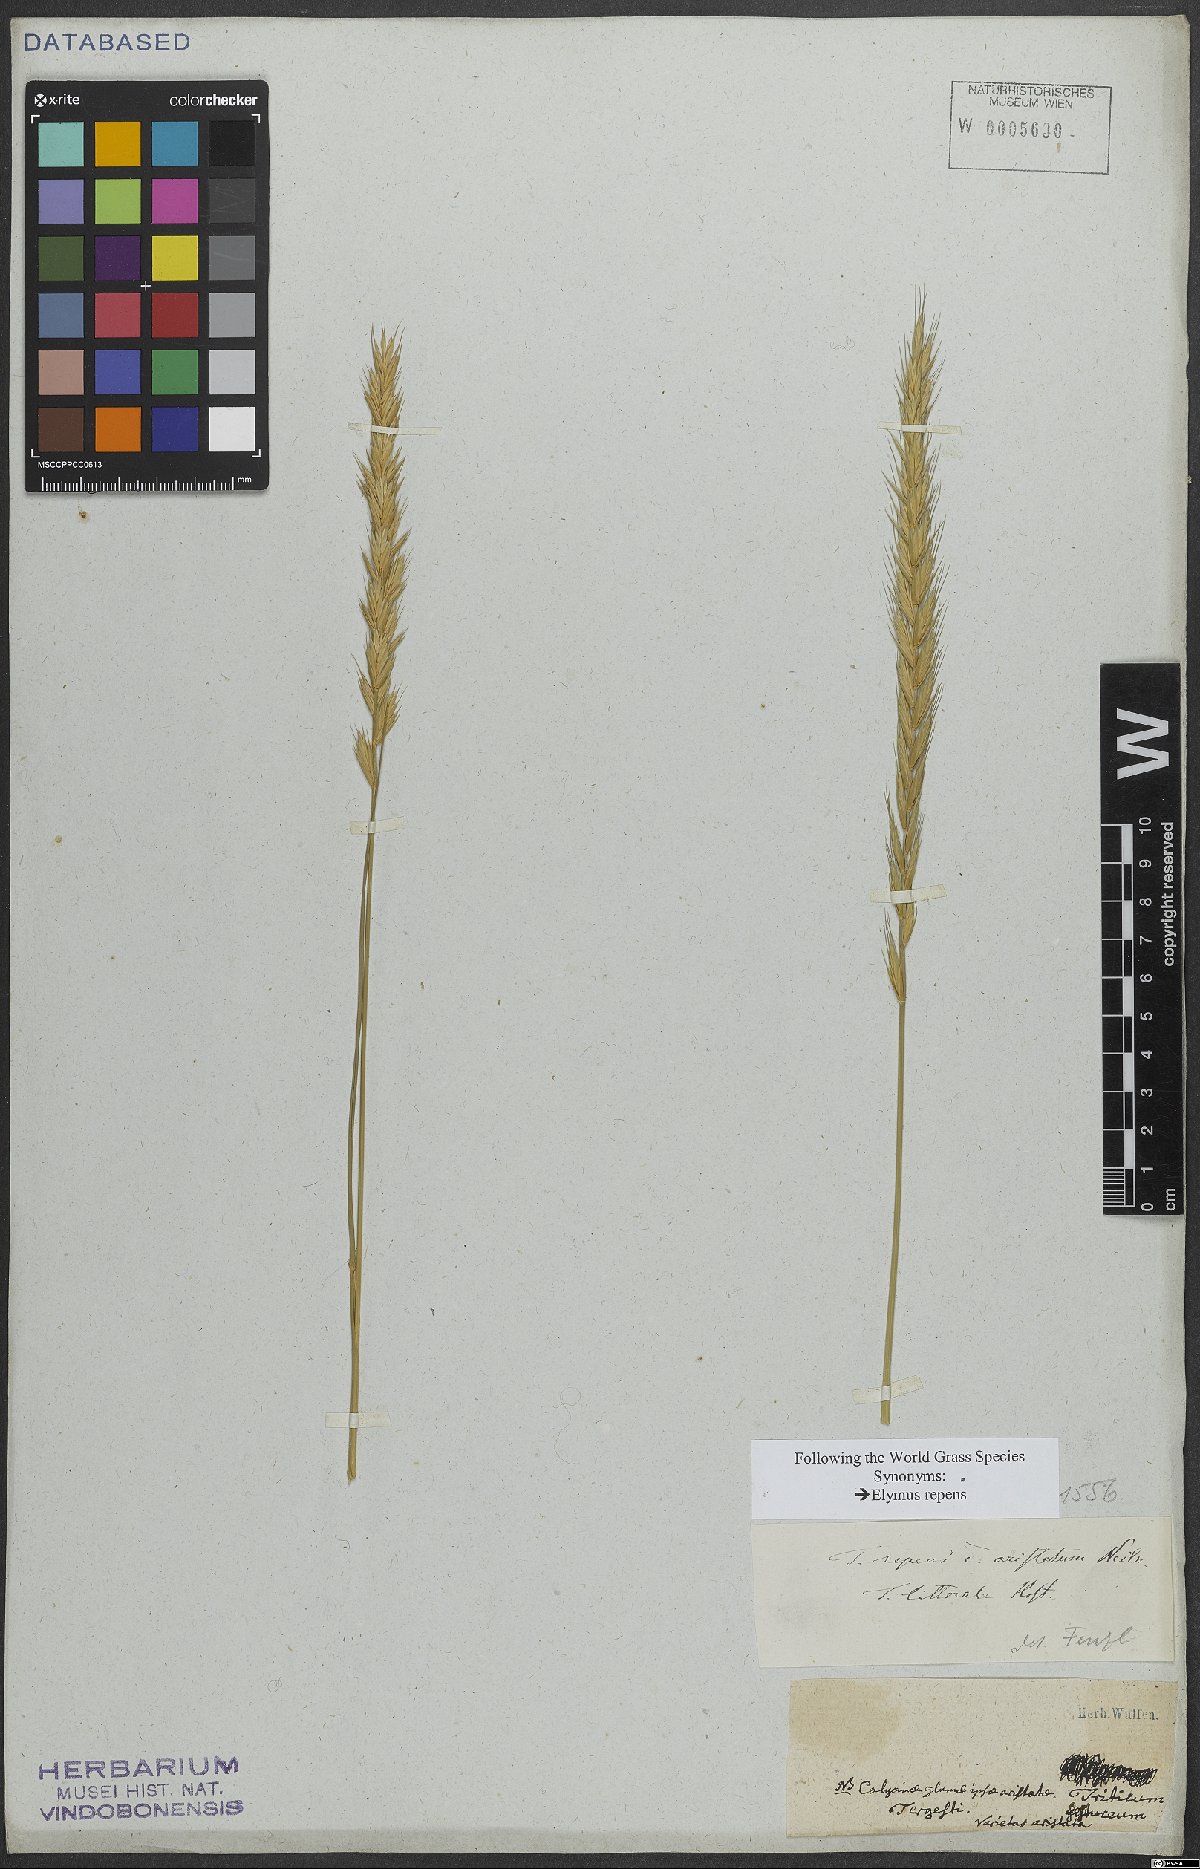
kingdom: Plantae
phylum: Tracheophyta
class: Liliopsida
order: Poales
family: Poaceae
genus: Elymus
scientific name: Elymus repens
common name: Quackgrass
